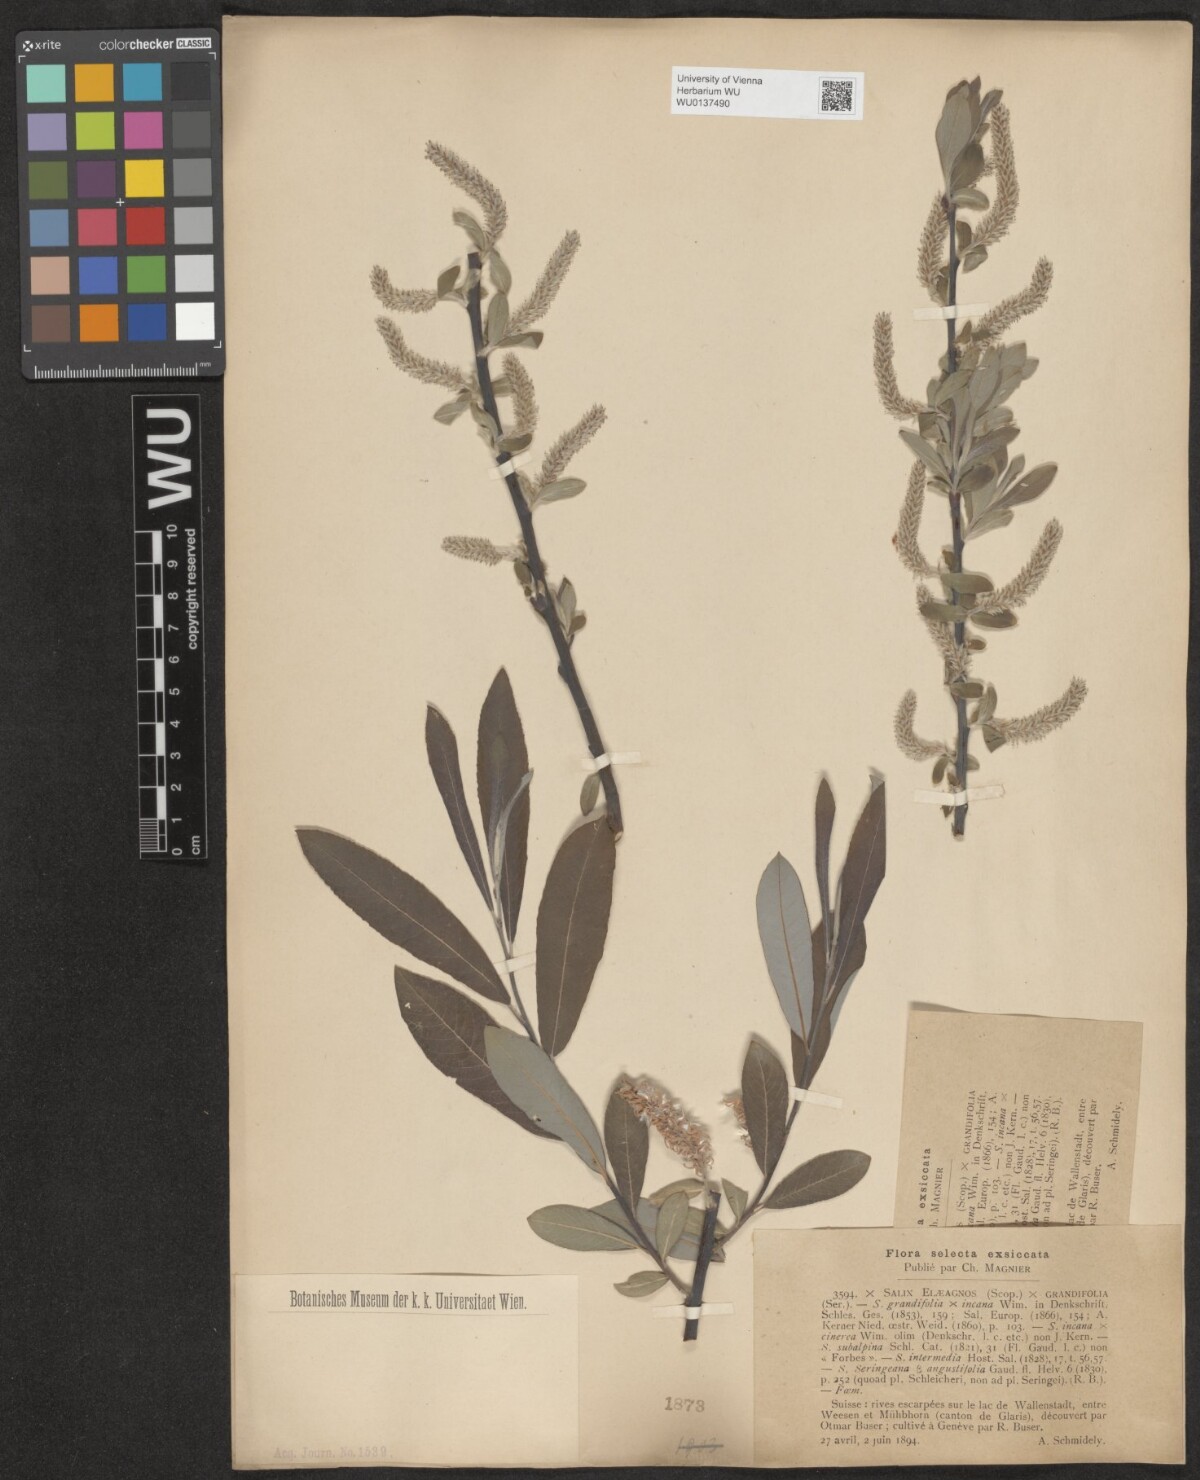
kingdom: Plantae
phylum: Tracheophyta
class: Magnoliopsida
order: Malpighiales
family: Salicaceae
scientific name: Salicaceae
